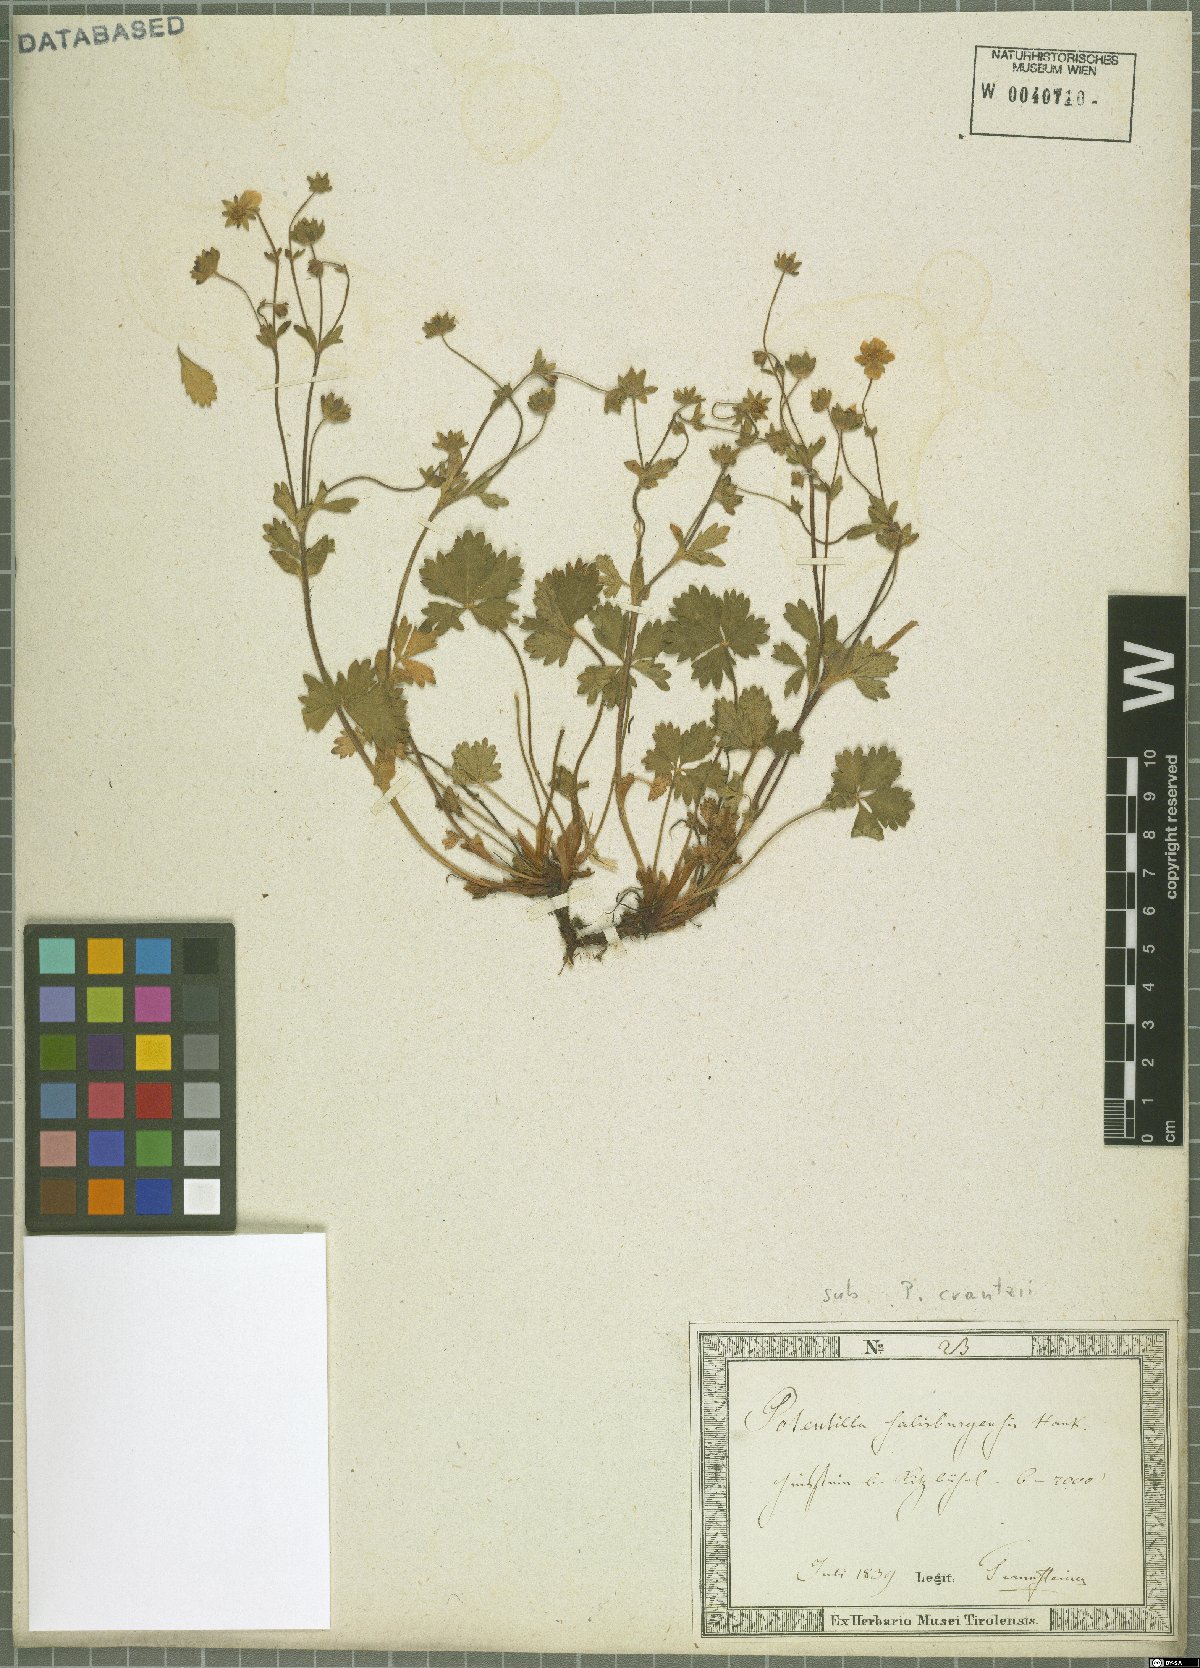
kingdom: Plantae
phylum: Tracheophyta
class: Magnoliopsida
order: Rosales
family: Rosaceae
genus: Potentilla
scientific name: Potentilla crantzii
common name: Alpine cinquefoil
